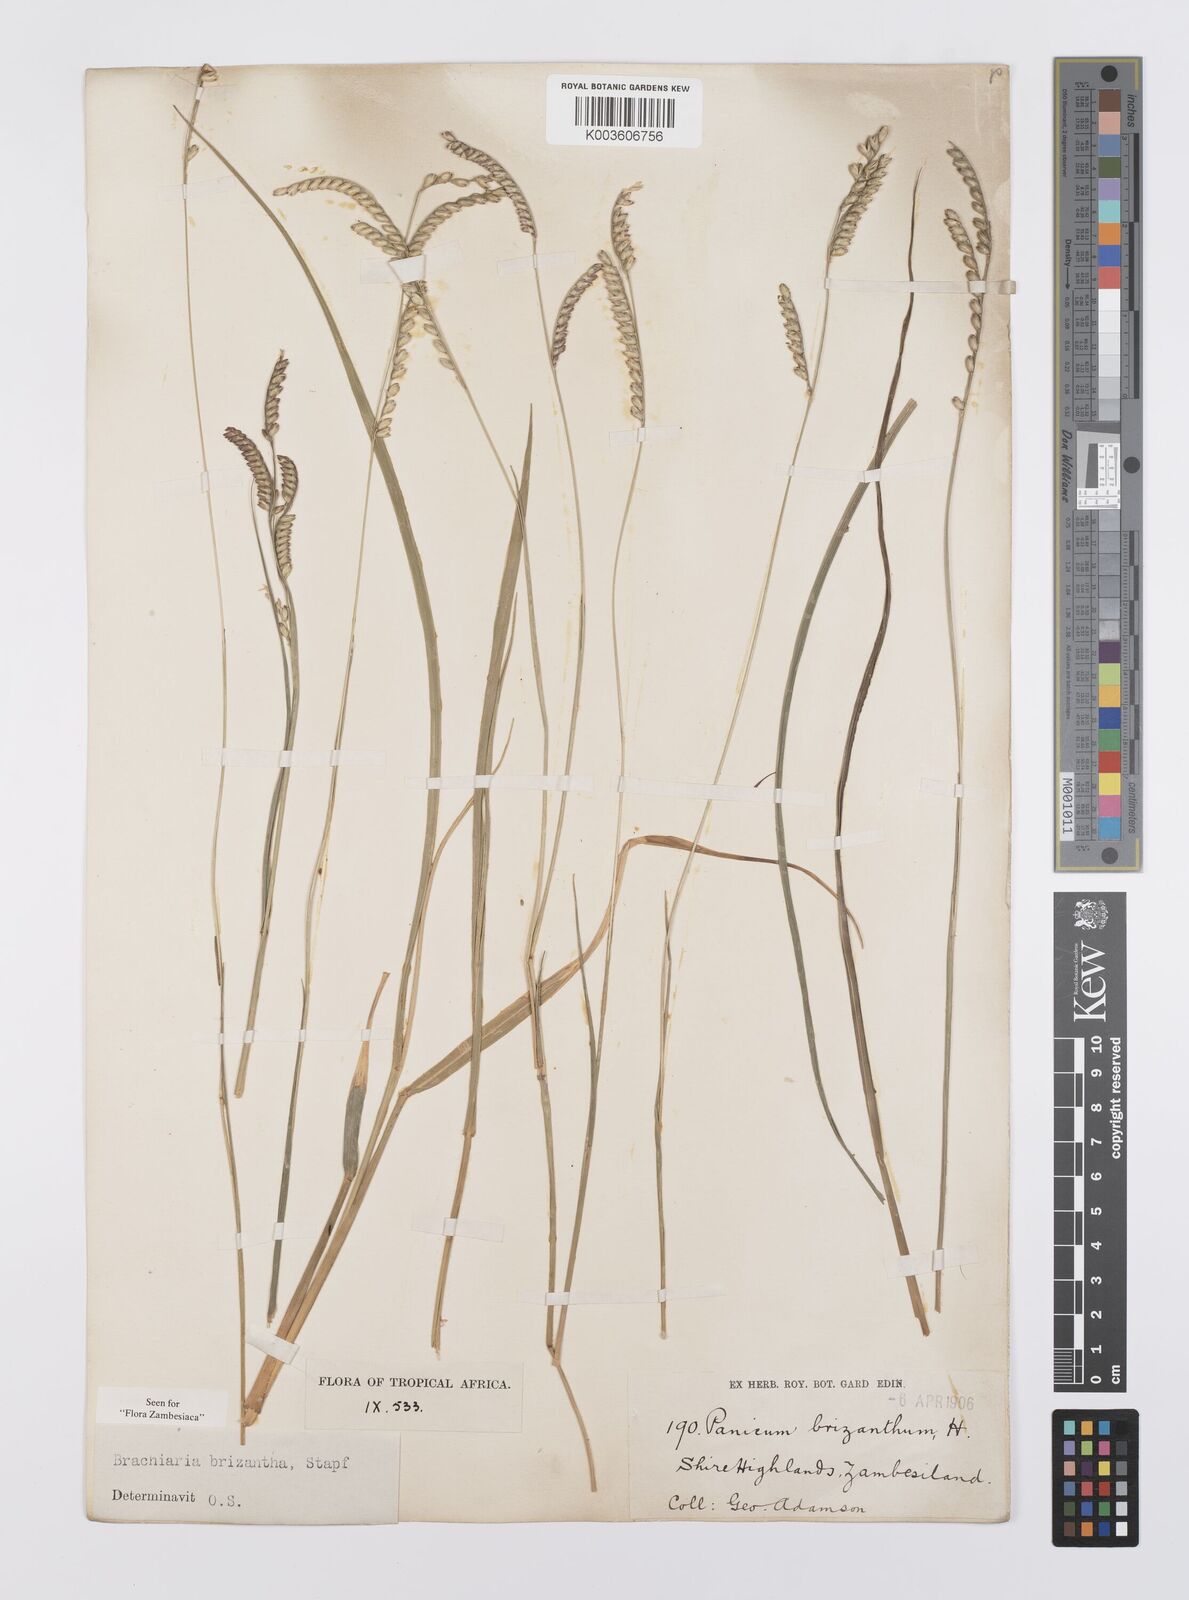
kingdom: Plantae
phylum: Tracheophyta
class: Liliopsida
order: Poales
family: Poaceae
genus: Urochloa
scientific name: Urochloa brizantha
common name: Palisade signalgrass
